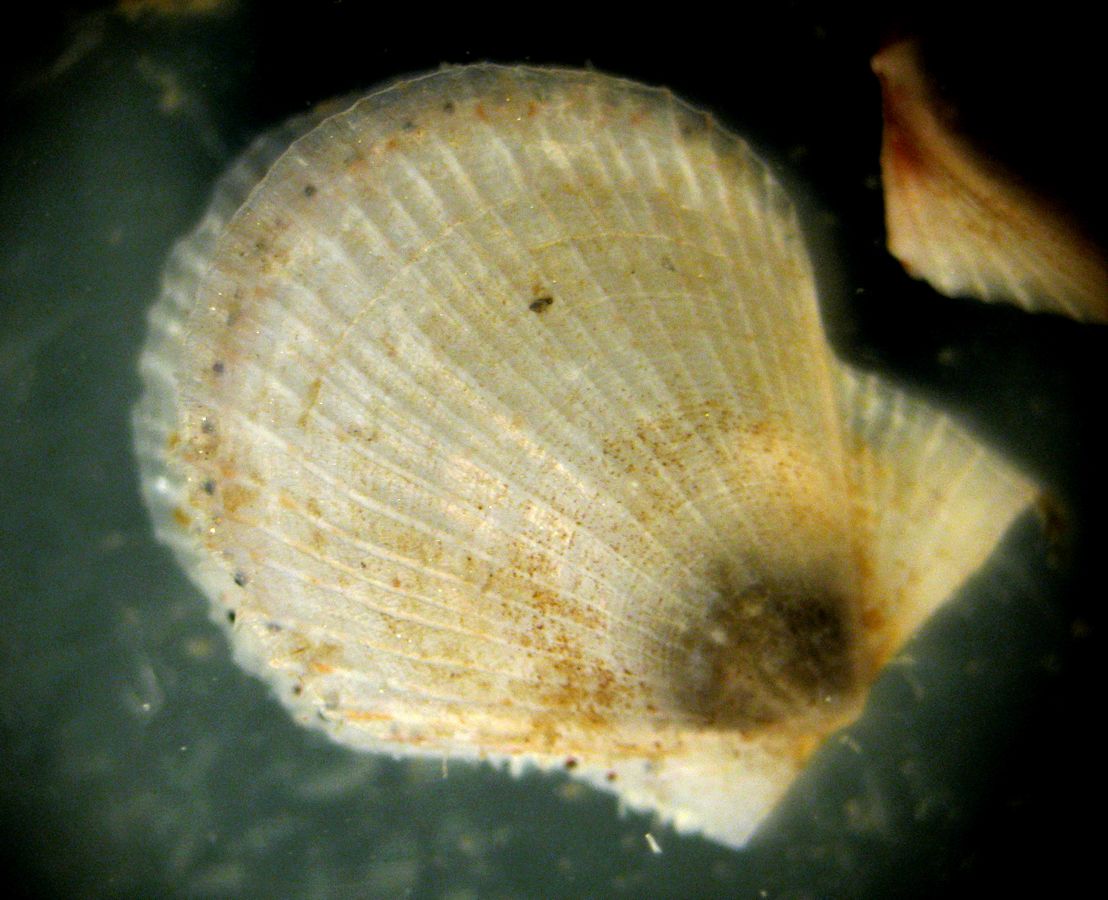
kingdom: Animalia
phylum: Mollusca
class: Bivalvia
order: Pectinida
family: Pectinidae
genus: Chlamys
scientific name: Chlamys islandica
